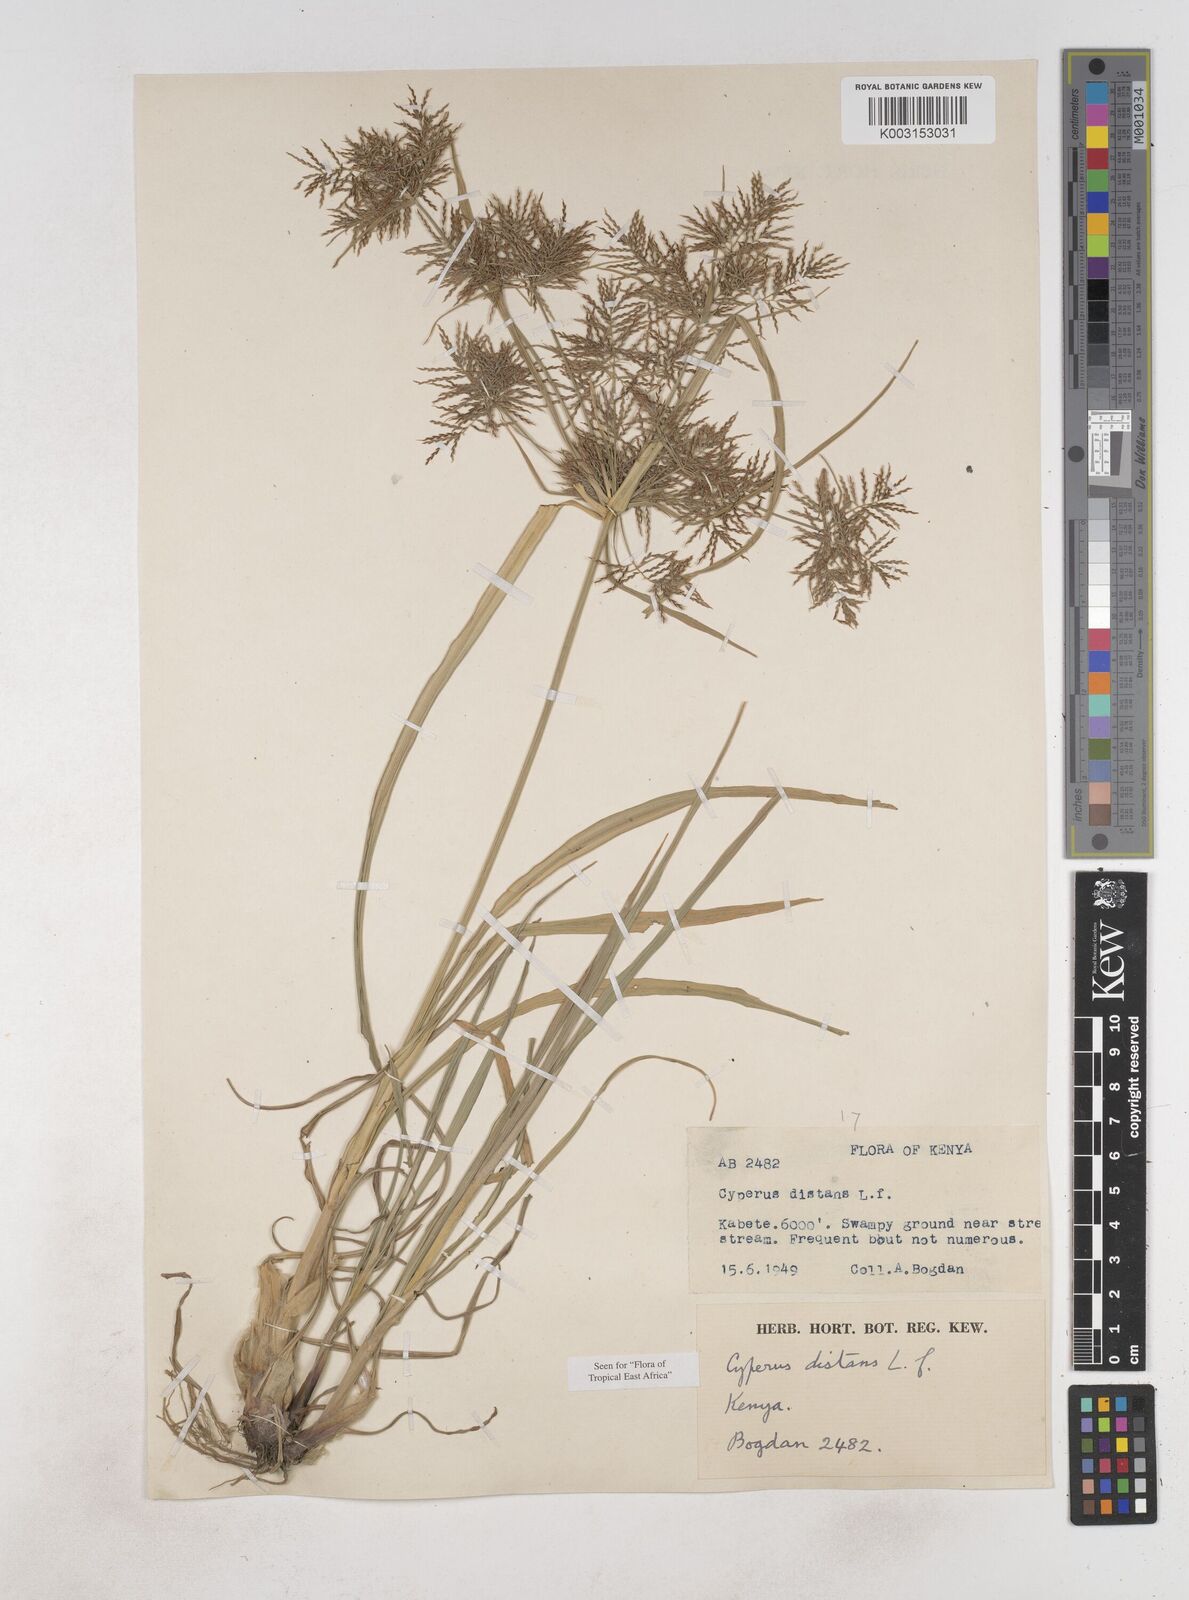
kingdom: Plantae
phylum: Tracheophyta
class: Liliopsida
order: Poales
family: Cyperaceae
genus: Cyperus
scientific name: Cyperus distans
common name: Slender cyperus
